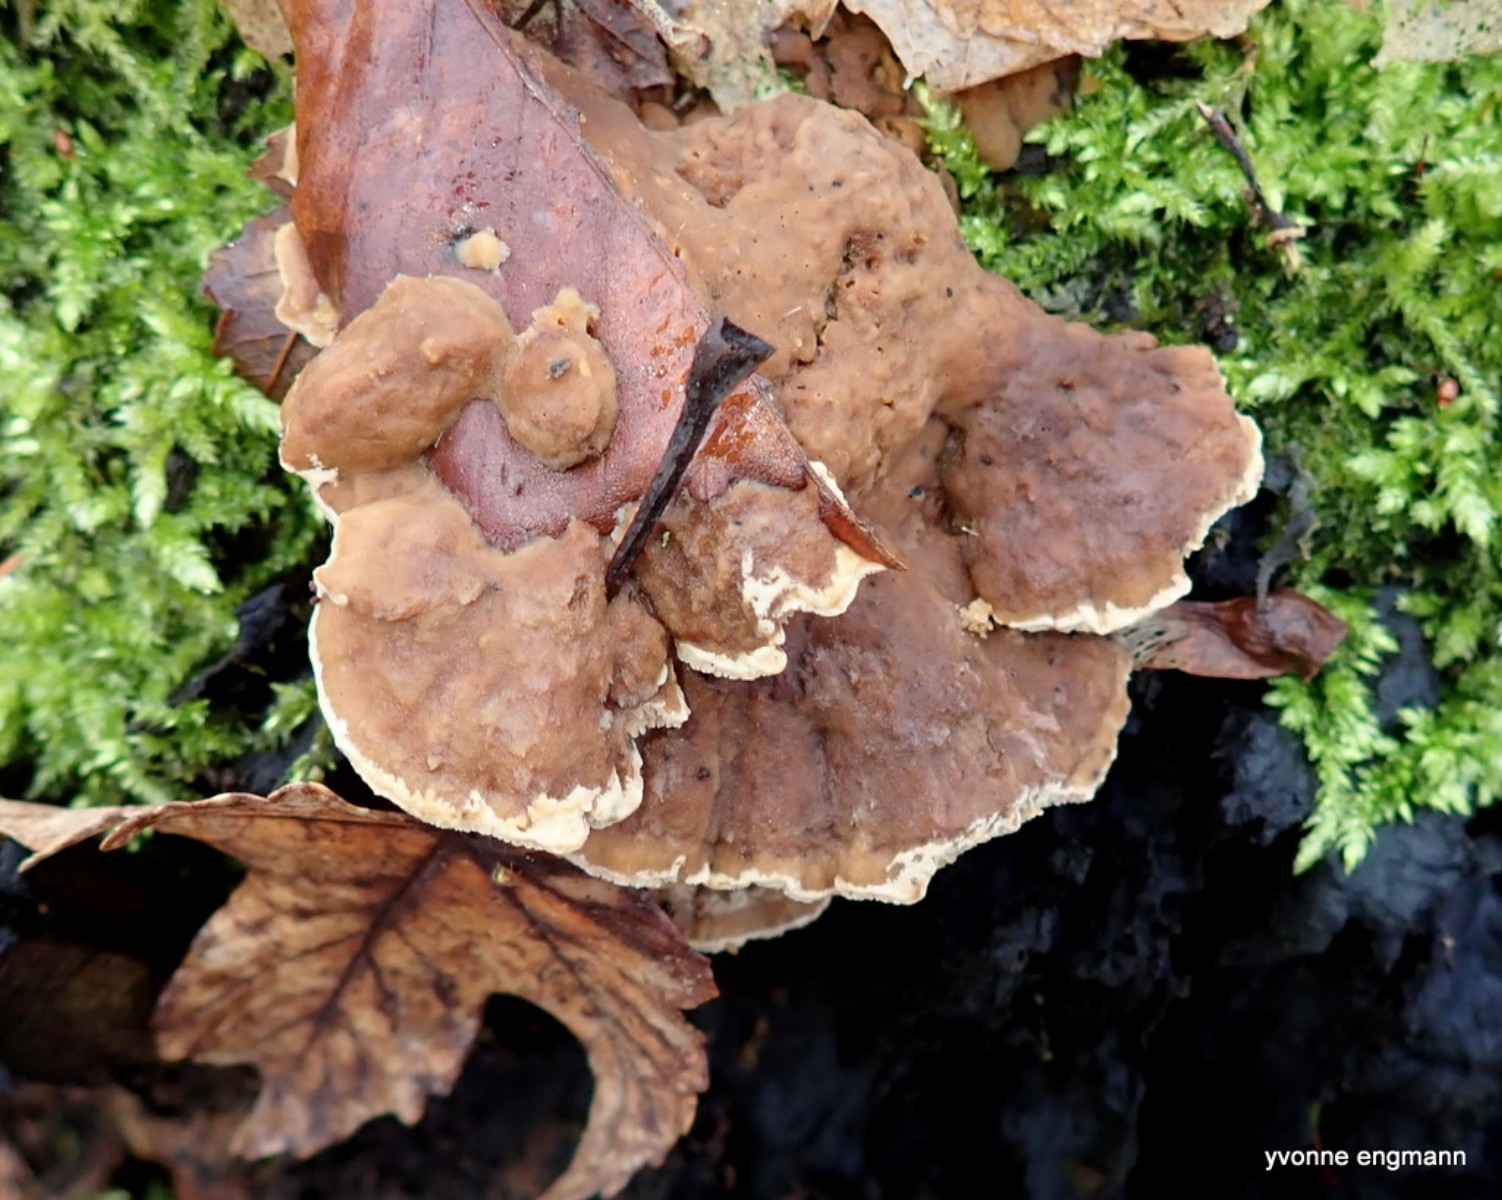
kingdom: Fungi
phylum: Basidiomycota
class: Agaricomycetes
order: Polyporales
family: Phanerochaetaceae
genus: Bjerkandera
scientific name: Bjerkandera fumosa
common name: grågul sodporesvamp
